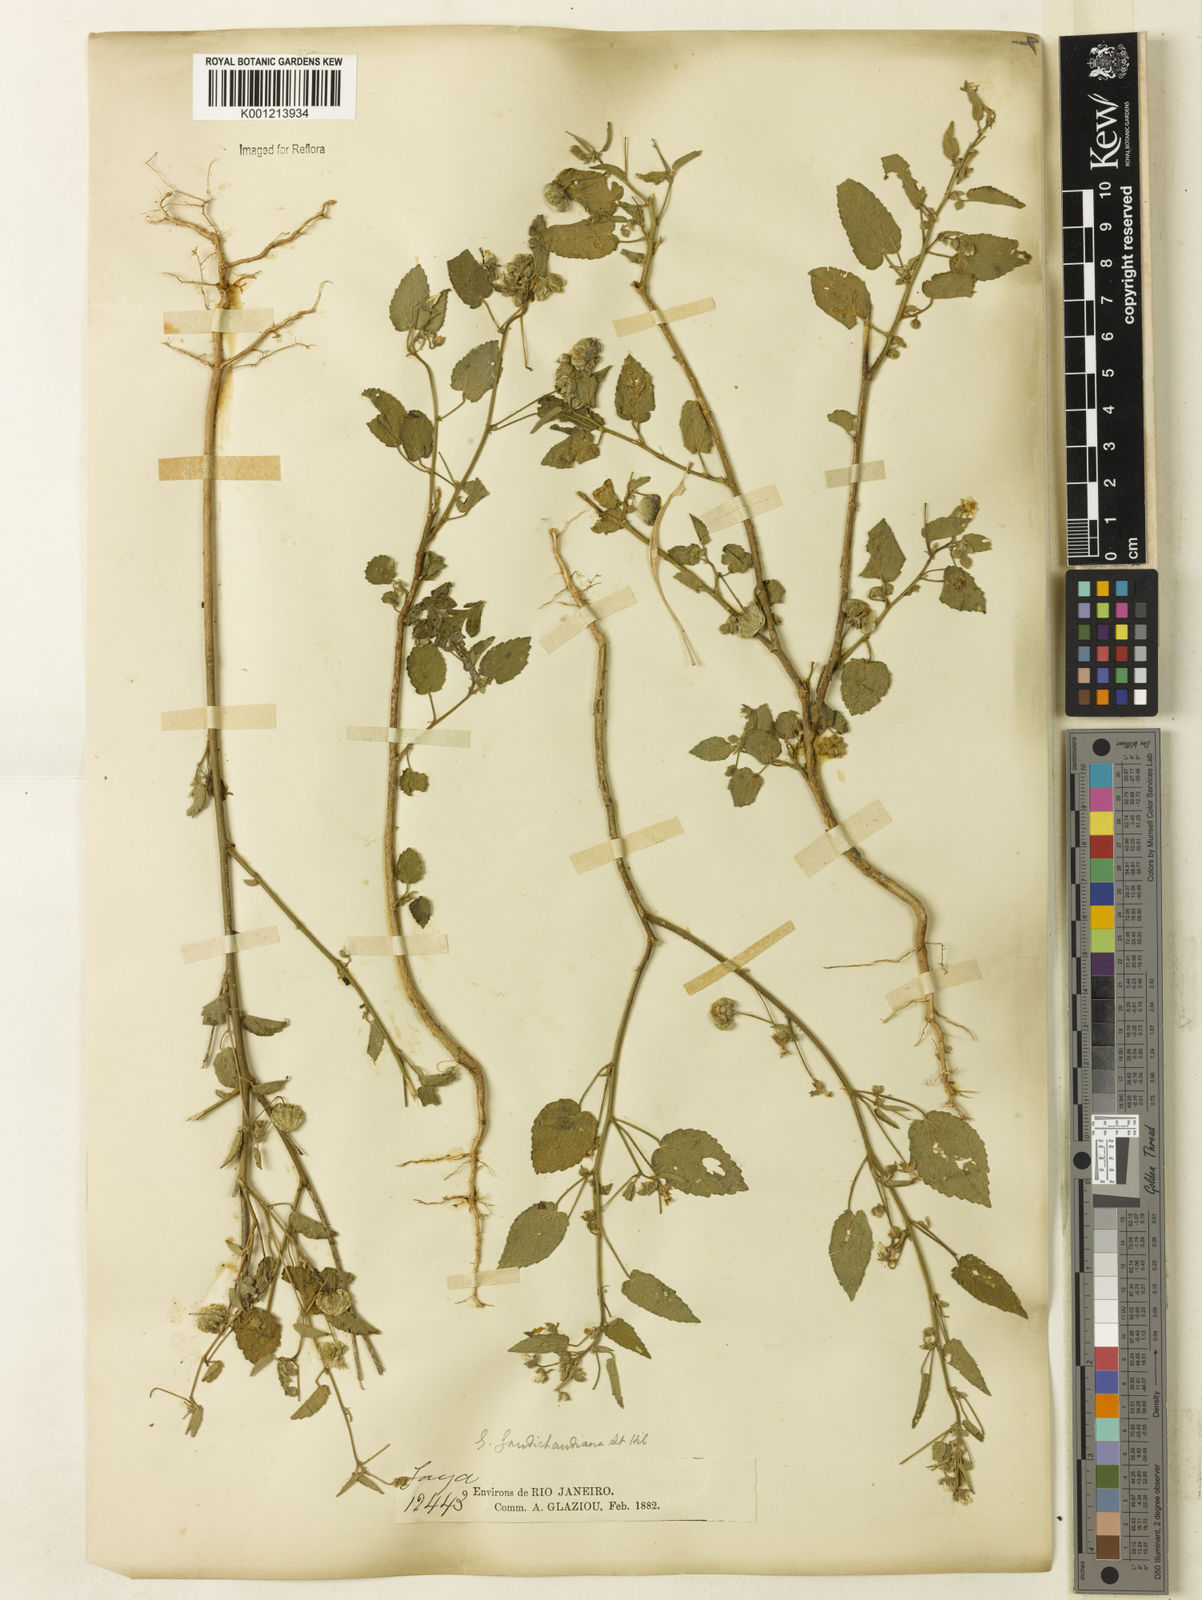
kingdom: Plantae
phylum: Tracheophyta
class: Magnoliopsida
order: Malvales
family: Malvaceae
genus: Gaya
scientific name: Gaya gaudichaudiana
